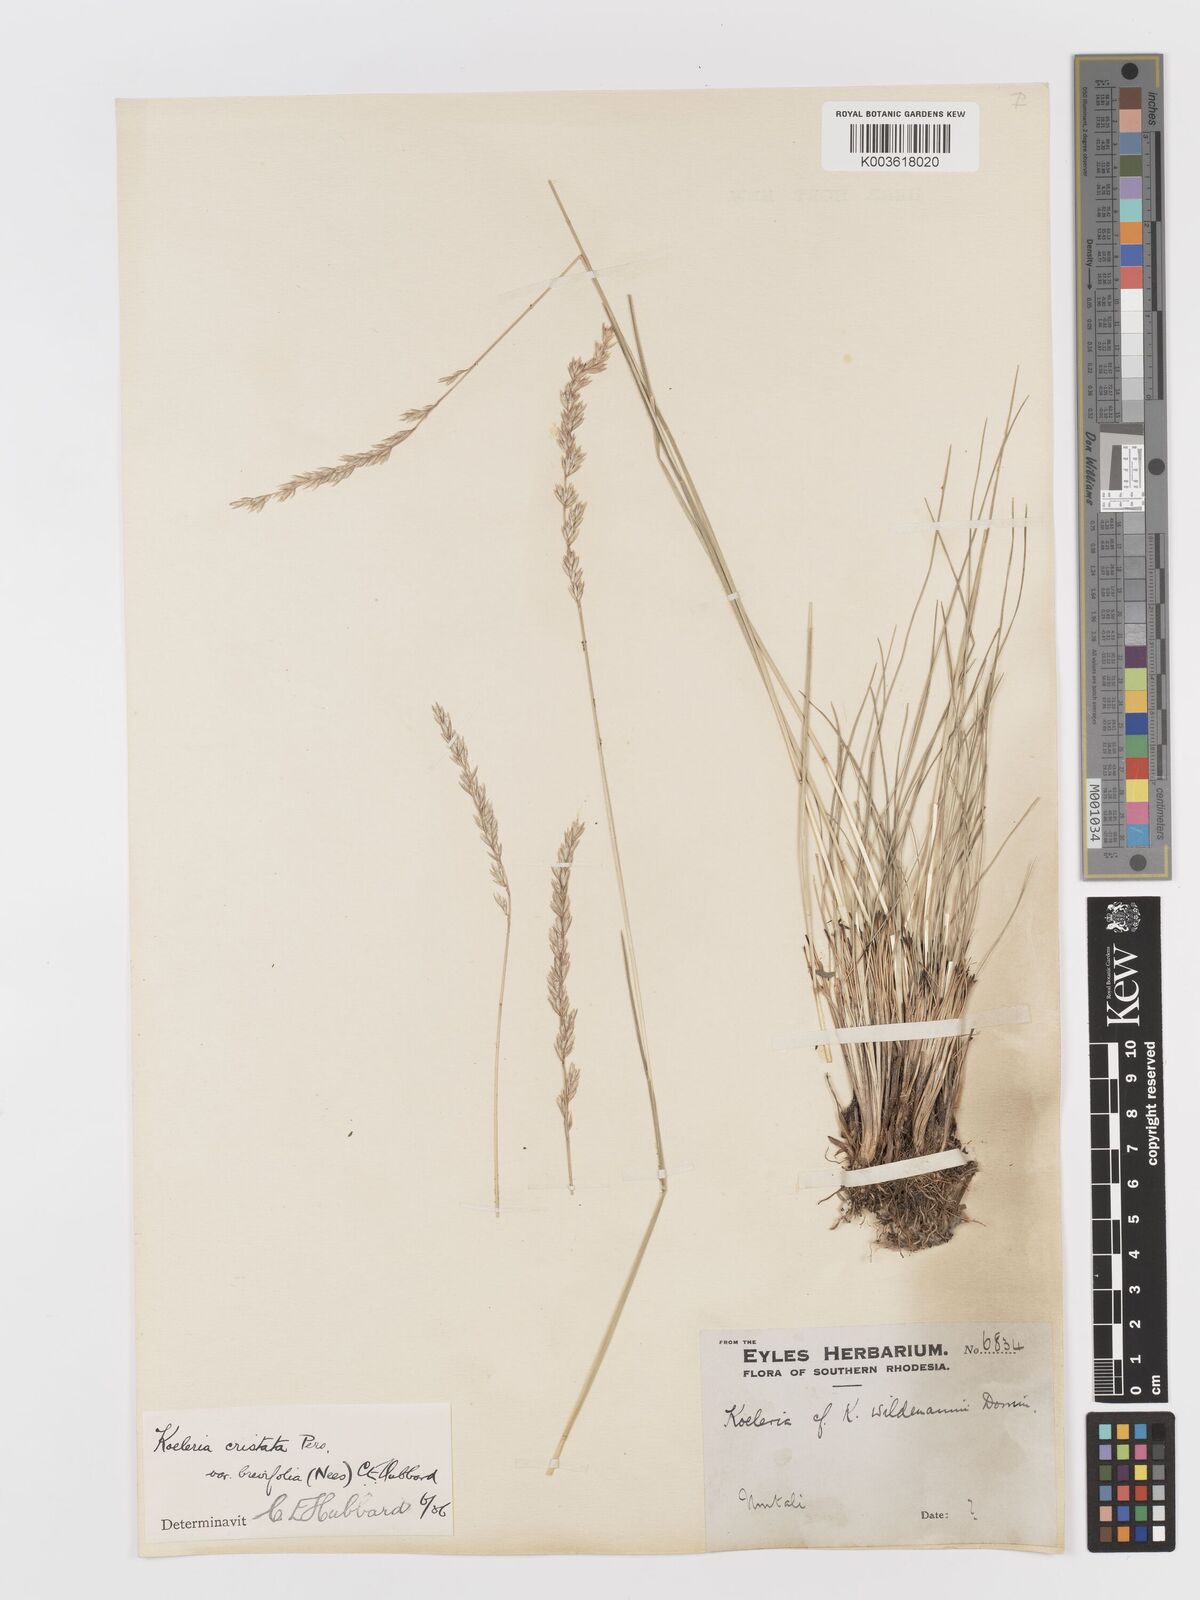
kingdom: Plantae
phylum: Tracheophyta
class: Liliopsida
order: Poales
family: Poaceae
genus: Koeleria
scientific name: Koeleria capensis
